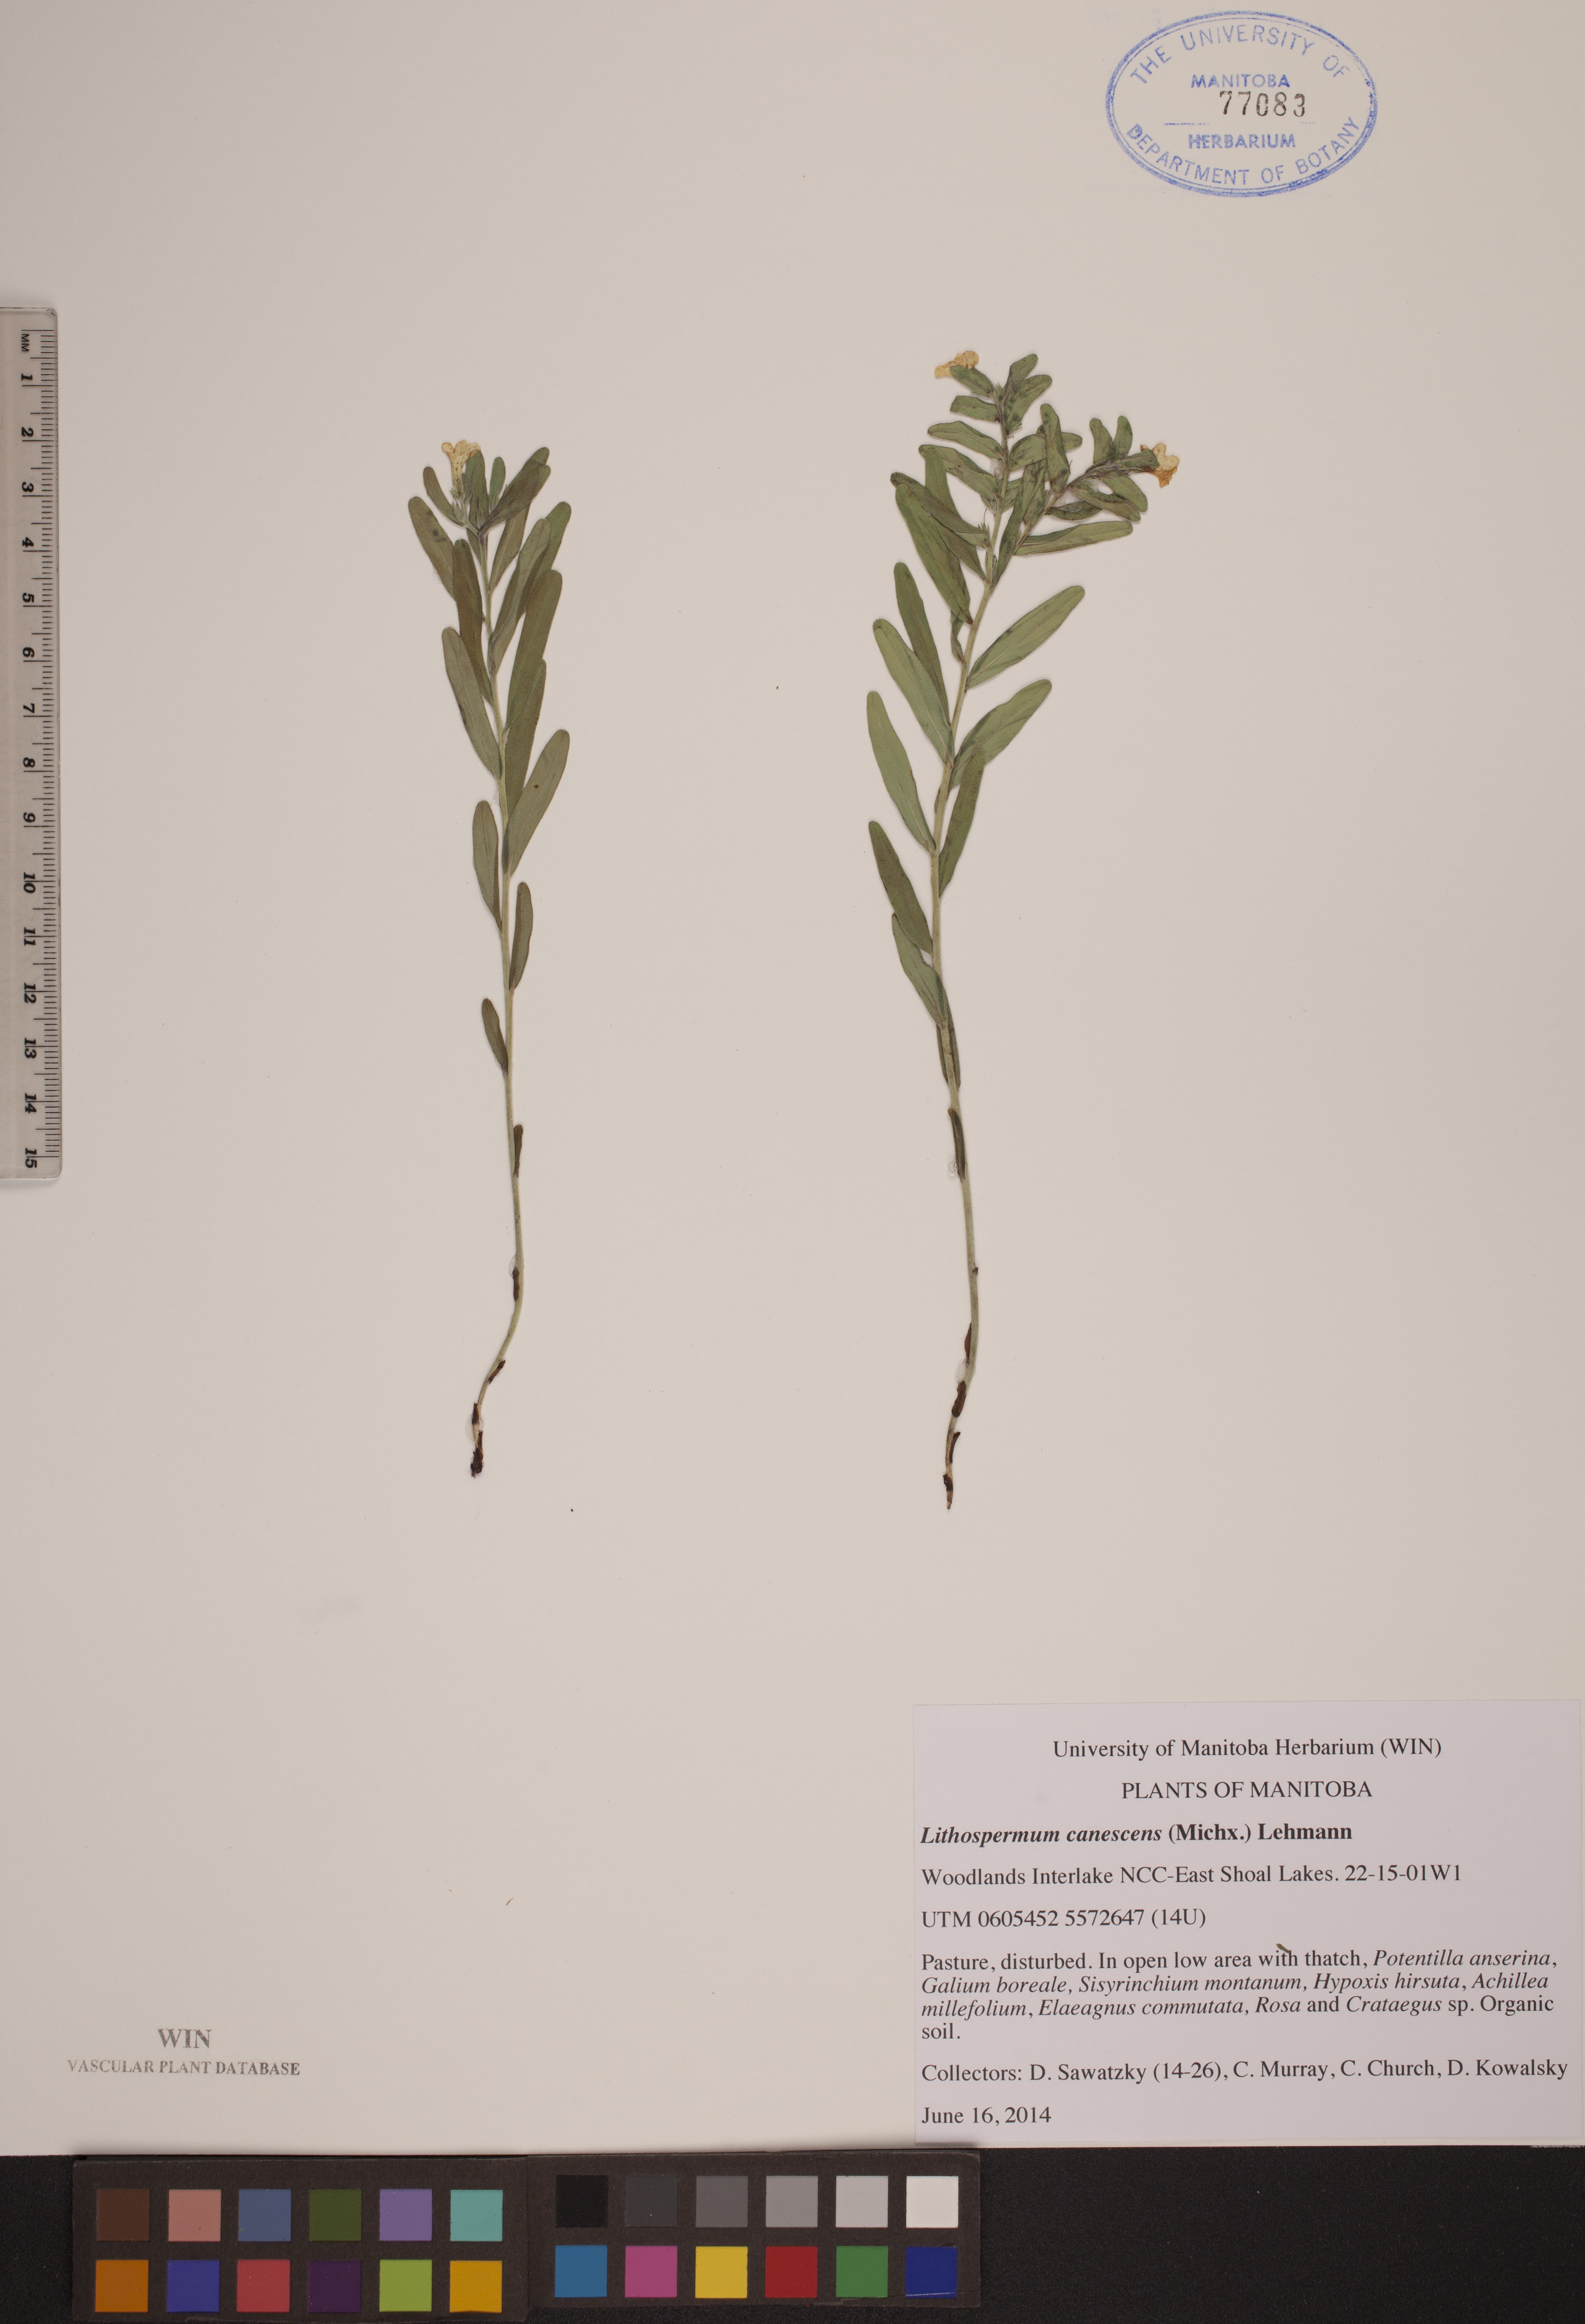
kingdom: Plantae
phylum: Tracheophyta
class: Magnoliopsida
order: Boraginales
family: Boraginaceae
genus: Lithospermum
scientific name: Lithospermum canescens
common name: Hoary puccoon
